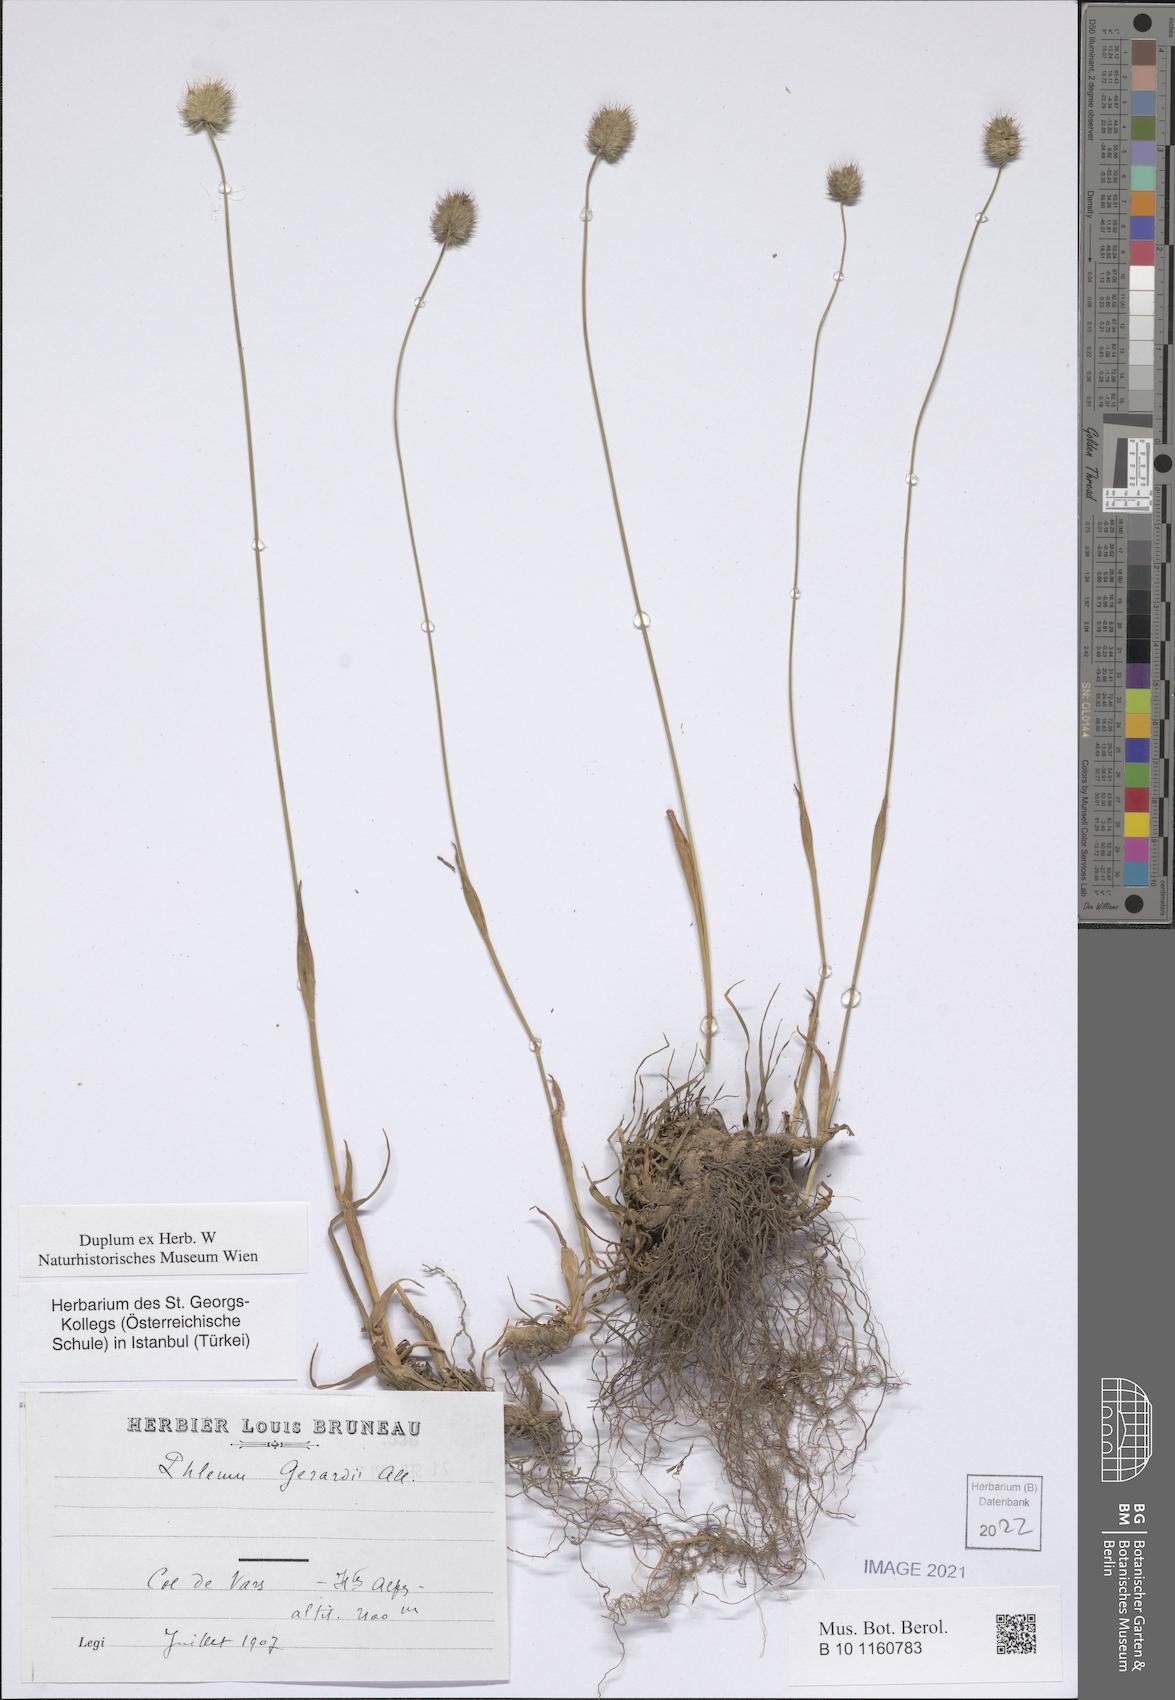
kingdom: Plantae
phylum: Tracheophyta
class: Liliopsida
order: Poales
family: Poaceae
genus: Alopecurus
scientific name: Alopecurus gerardii
